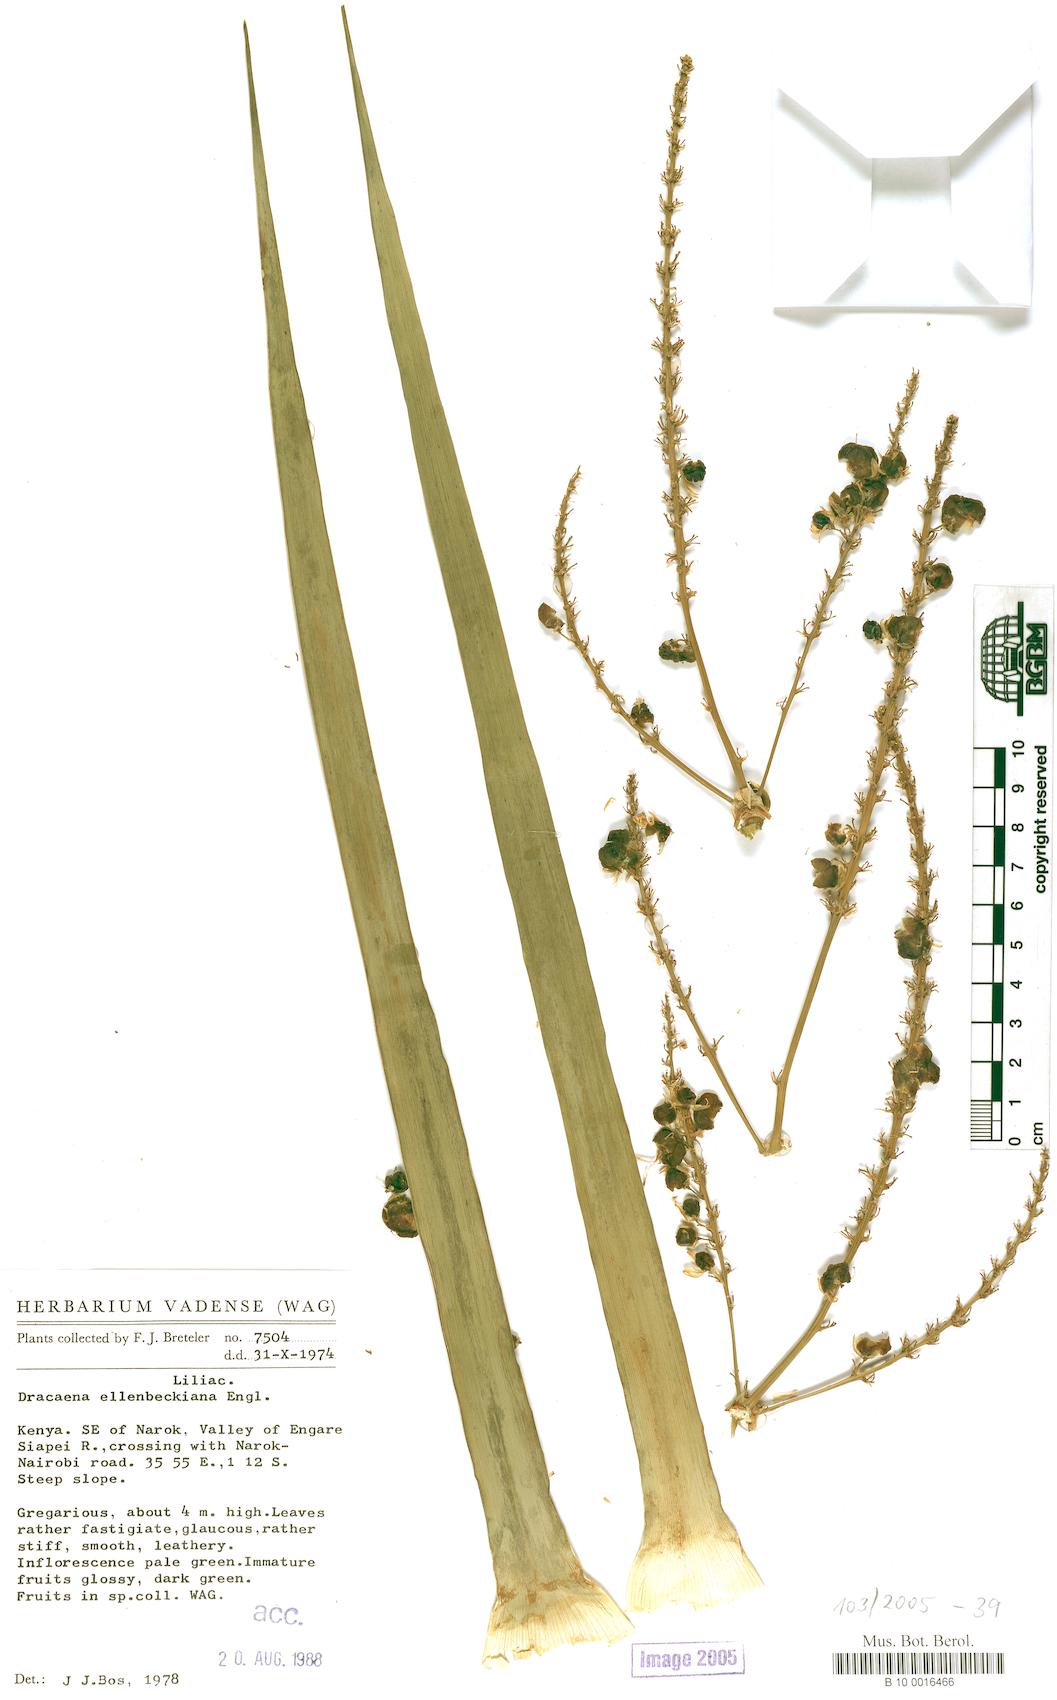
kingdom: Plantae
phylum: Tracheophyta
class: Liliopsida
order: Asparagales
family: Asparagaceae
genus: Dracaena
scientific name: Dracaena ellenbeckiana
